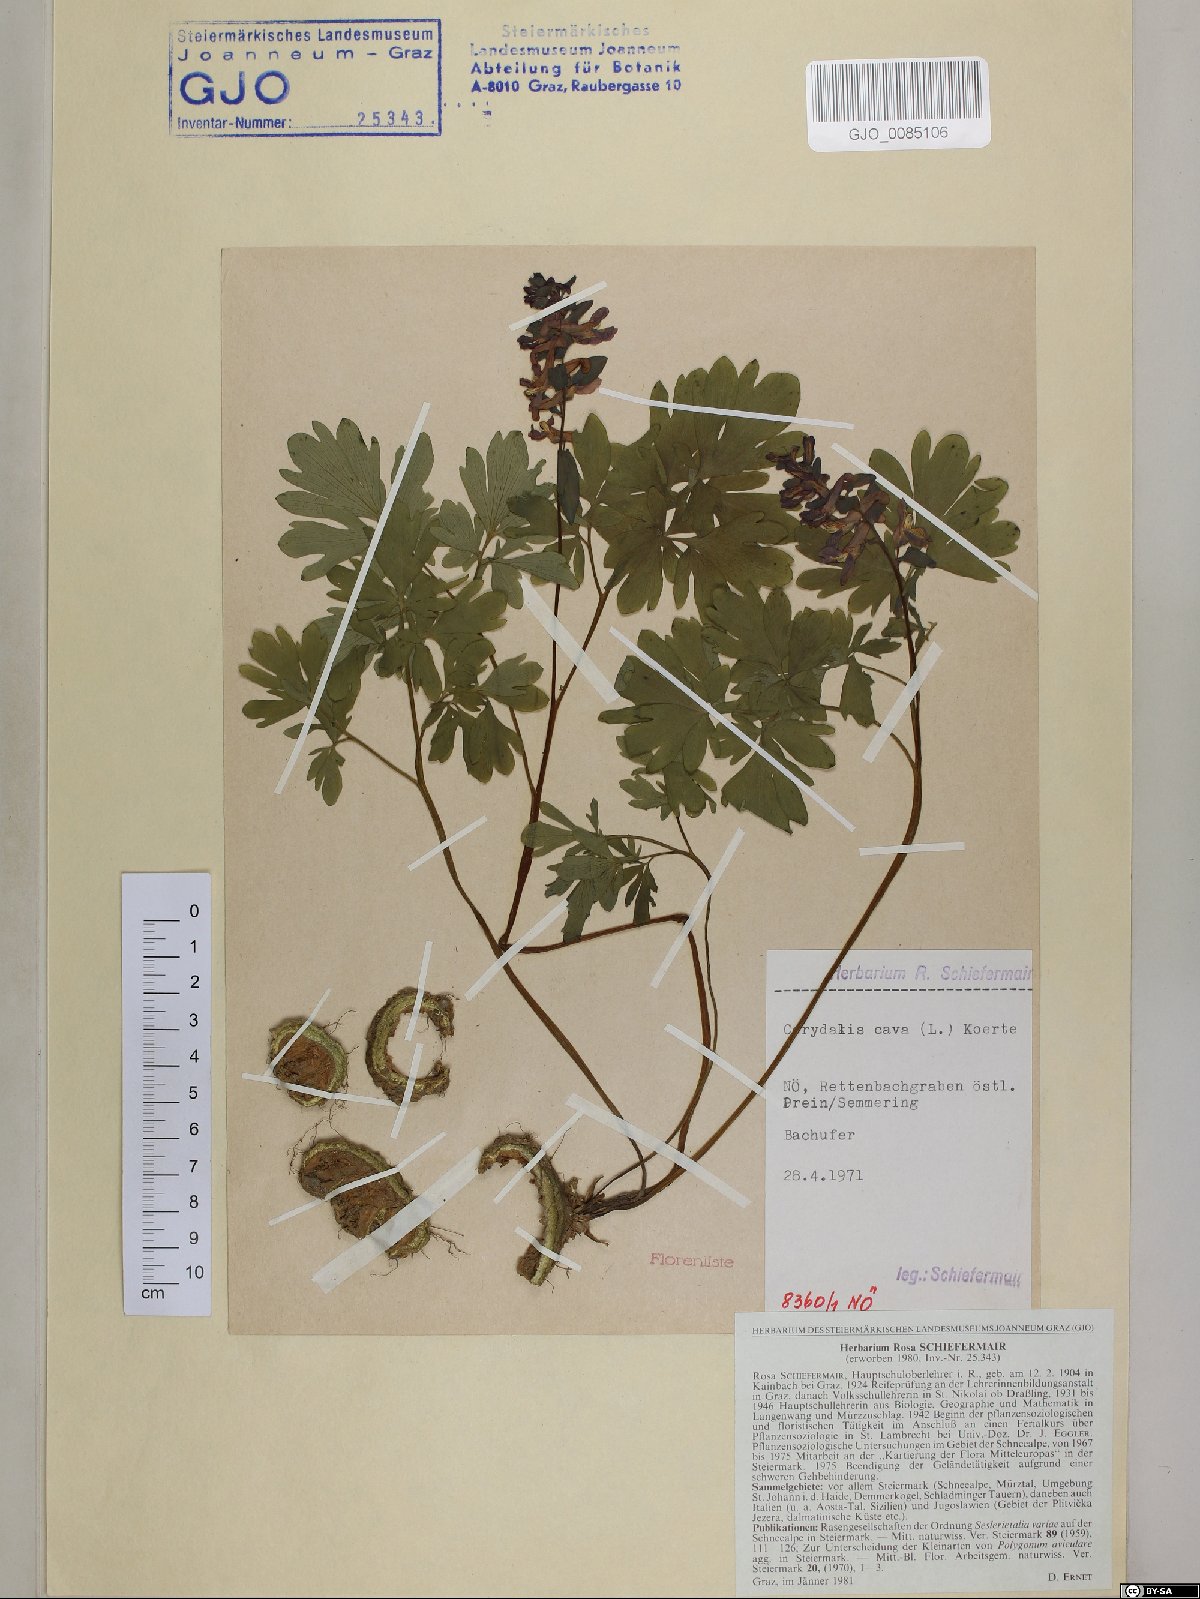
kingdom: Plantae
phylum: Tracheophyta
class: Magnoliopsida
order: Ranunculales
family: Papaveraceae
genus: Corydalis
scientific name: Corydalis cava
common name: Hollowroot
